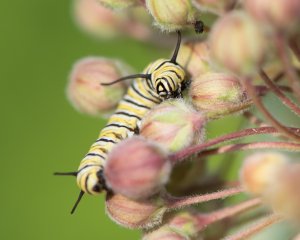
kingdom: Animalia
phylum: Arthropoda
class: Insecta
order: Lepidoptera
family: Nymphalidae
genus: Danaus
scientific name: Danaus plexippus
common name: Monarch
